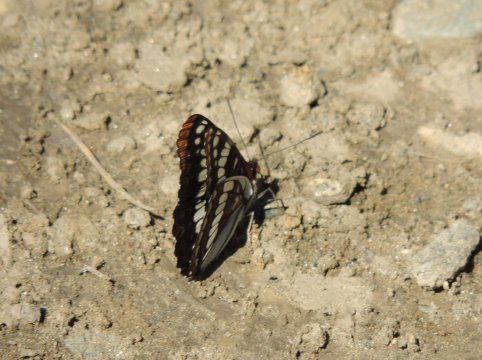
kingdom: Animalia
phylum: Arthropoda
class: Insecta
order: Lepidoptera
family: Nymphalidae
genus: Limenitis
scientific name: Limenitis lorquini
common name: Lorquin's Admiral
